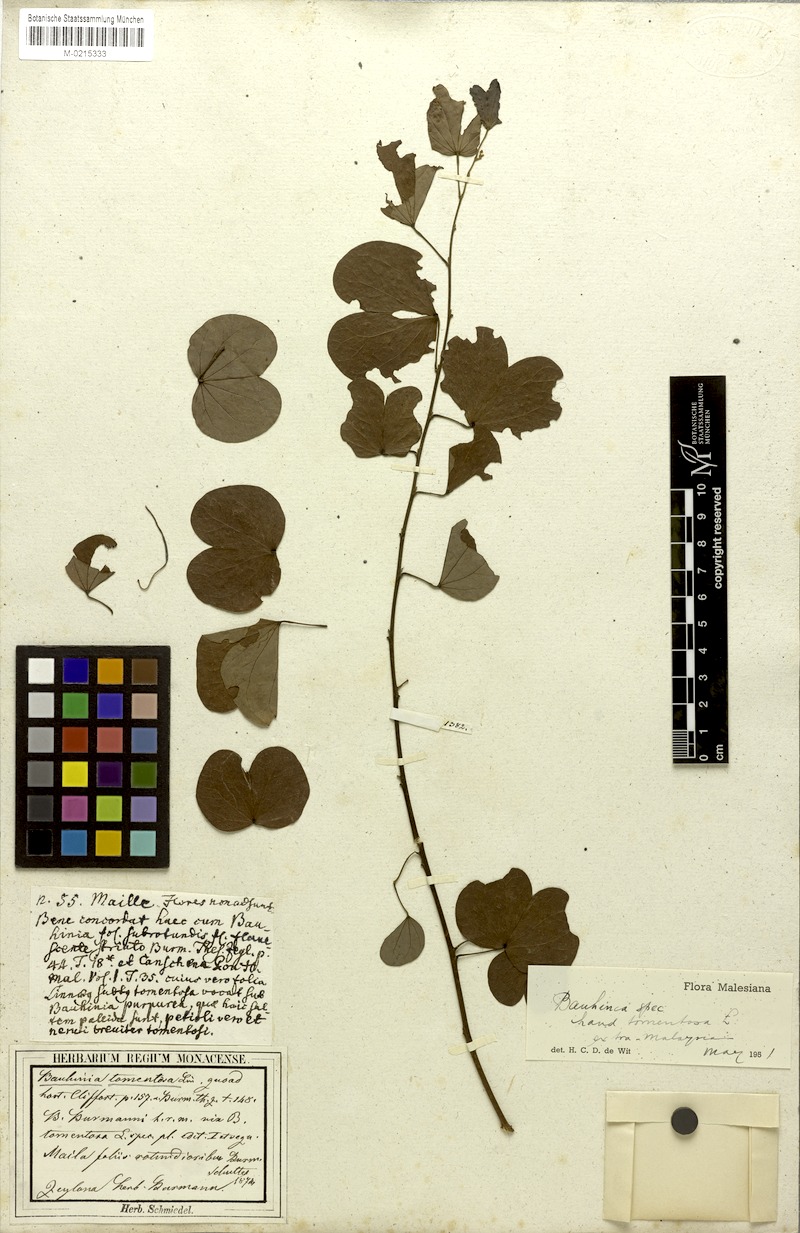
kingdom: Plantae
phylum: Tracheophyta
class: Magnoliopsida
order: Fabales
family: Fabaceae
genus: Bauhinia
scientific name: Bauhinia tomentosa
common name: Bell bauhinia
